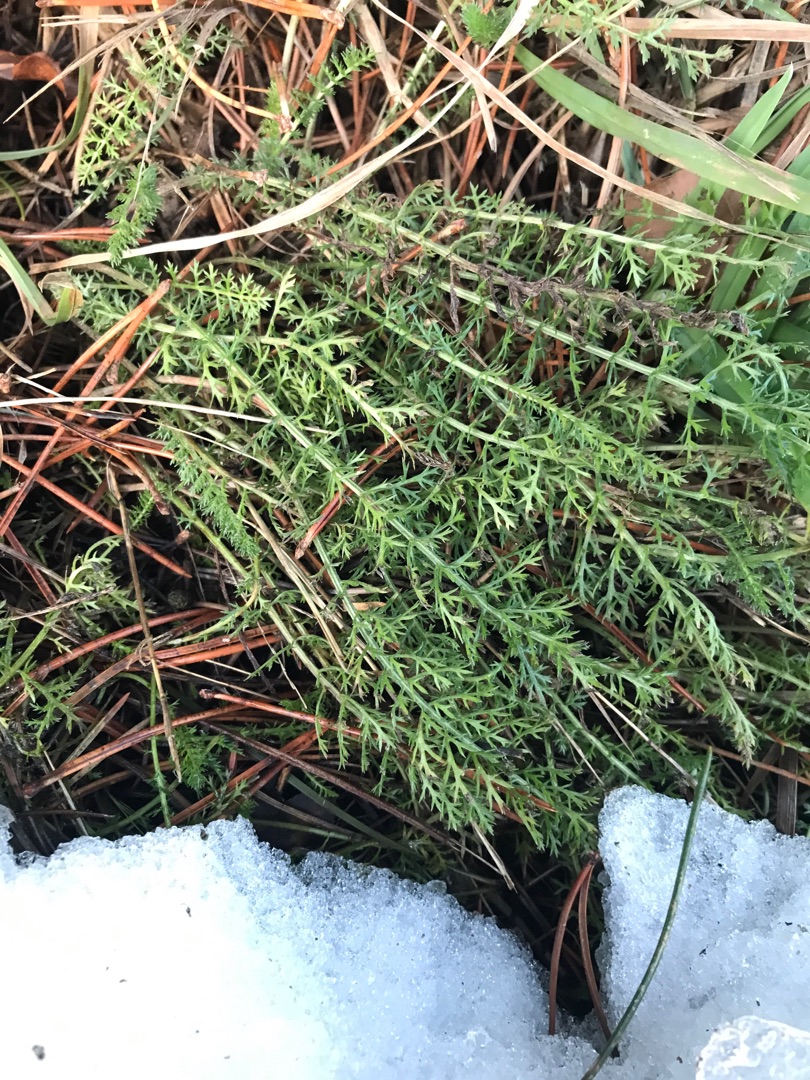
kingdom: Plantae
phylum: Tracheophyta
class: Magnoliopsida
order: Asterales
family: Asteraceae
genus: Achillea
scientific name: Achillea millefolium
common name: Almindelig røllike
